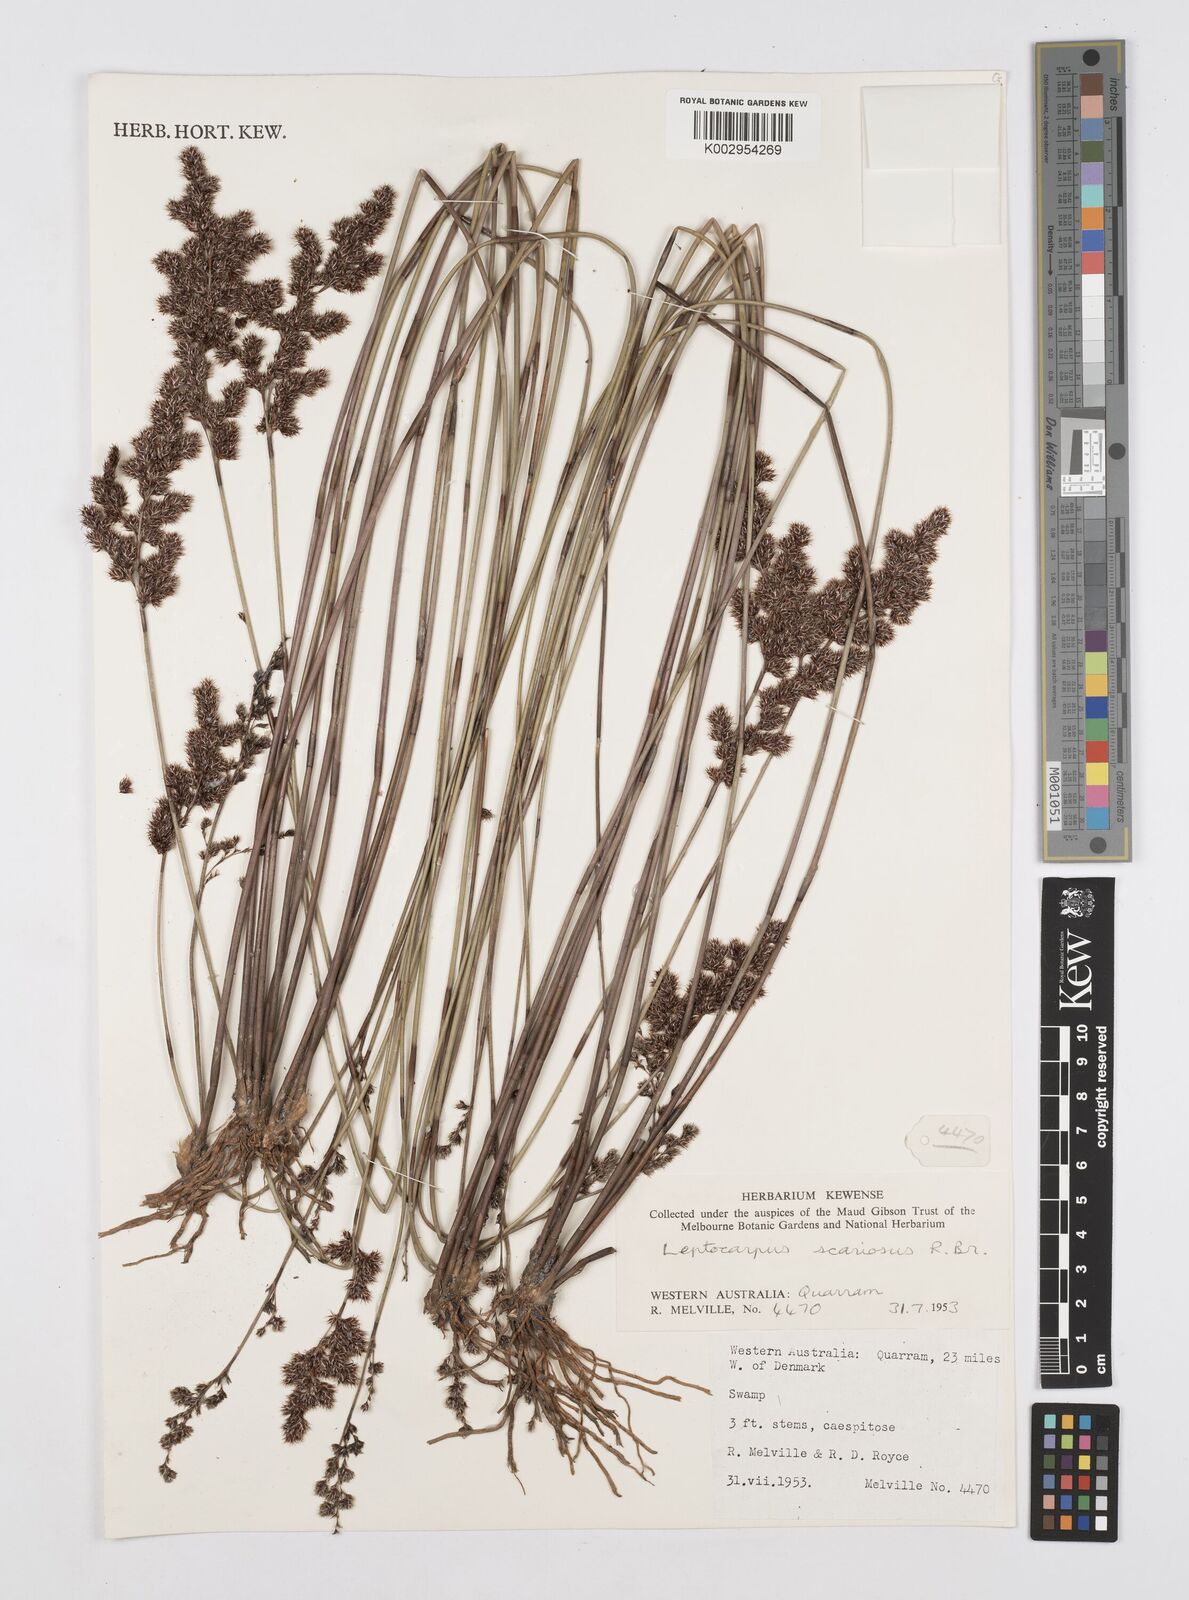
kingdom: Plantae
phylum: Tracheophyta
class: Liliopsida
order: Poales
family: Restionaceae
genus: Leptocarpus
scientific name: Leptocarpus scariosus
